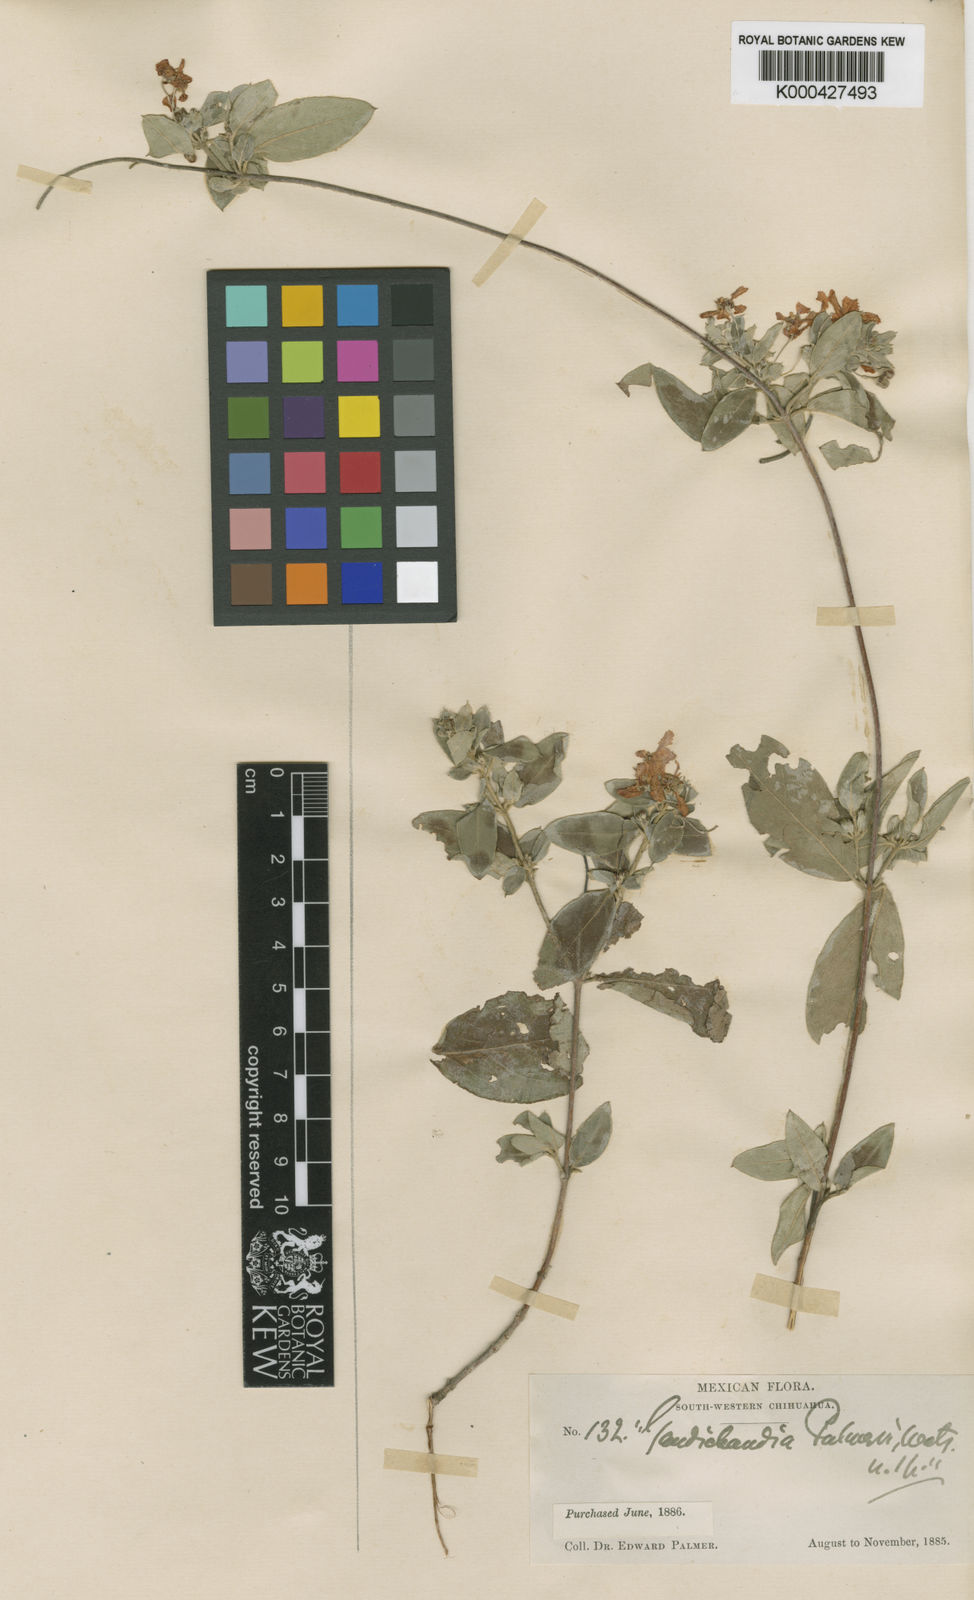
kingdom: Plantae
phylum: Tracheophyta
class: Magnoliopsida
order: Malpighiales
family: Malpighiaceae
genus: Gaudichaudia
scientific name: Gaudichaudia albida
